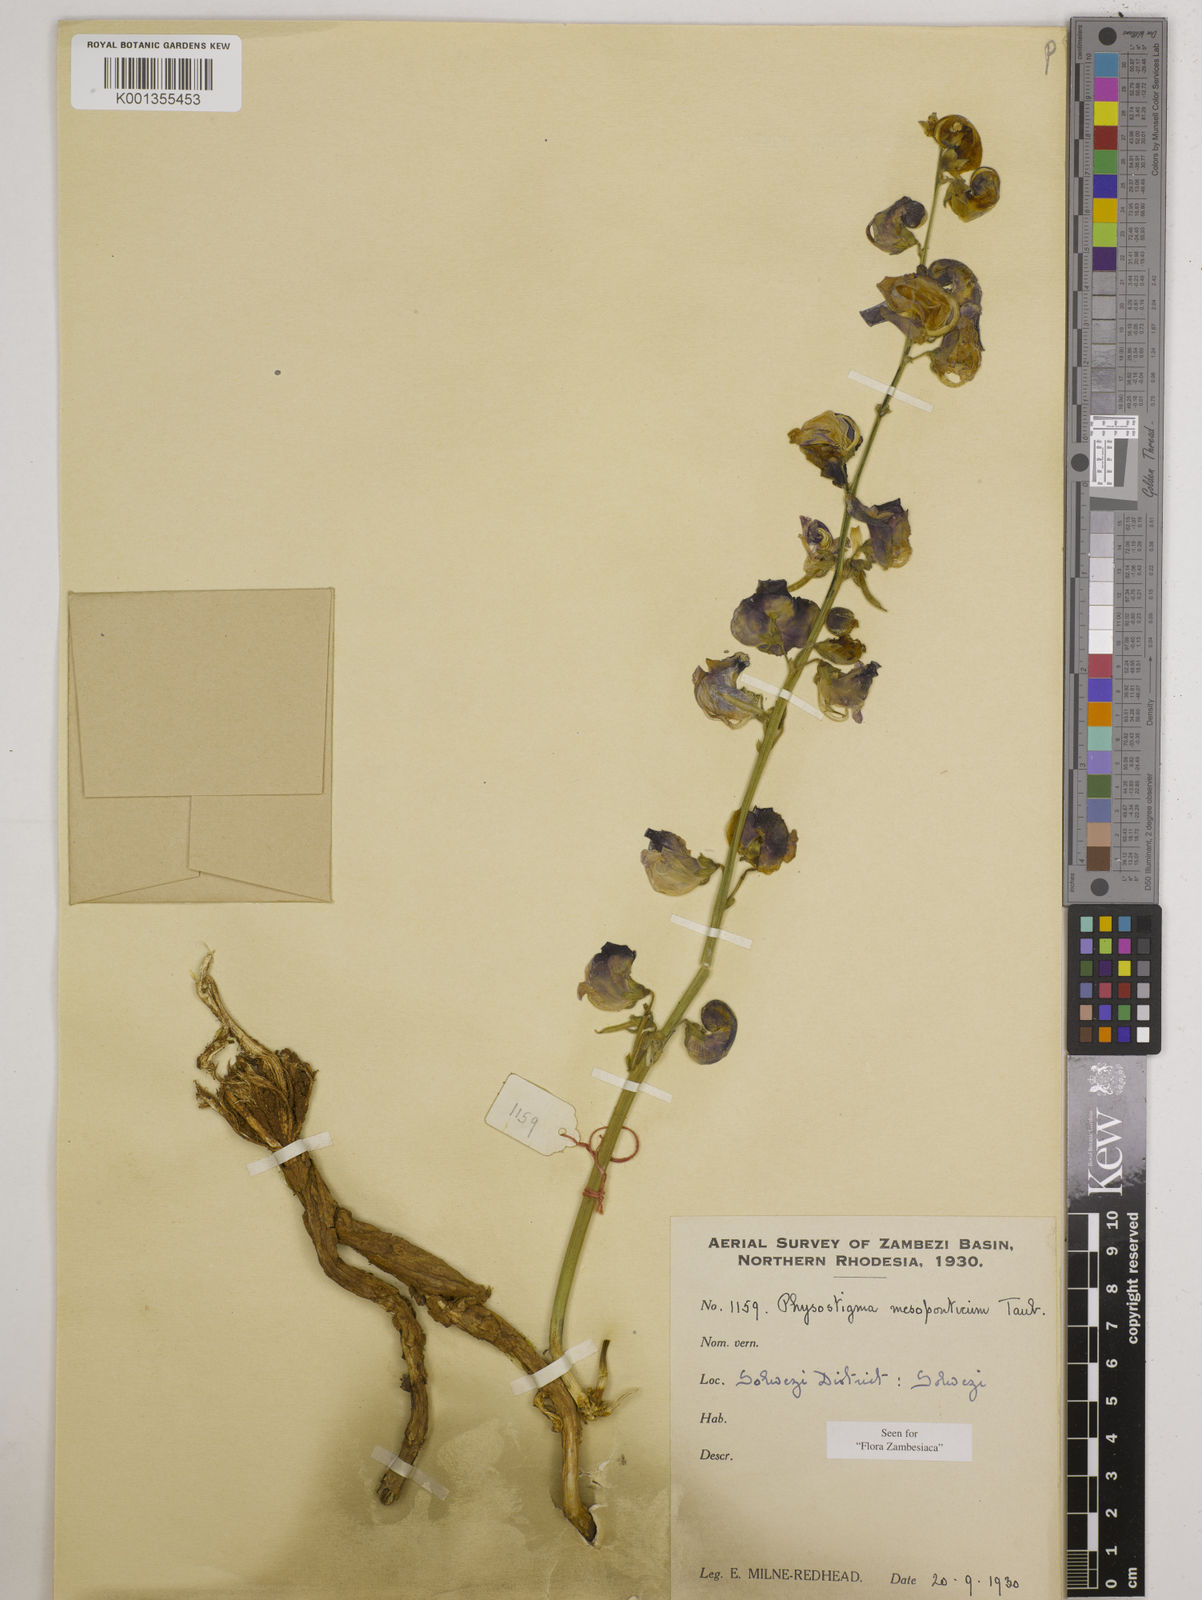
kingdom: Plantae
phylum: Tracheophyta
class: Magnoliopsida
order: Fabales
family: Fabaceae
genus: Physostigma
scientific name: Physostigma mesoponticum
